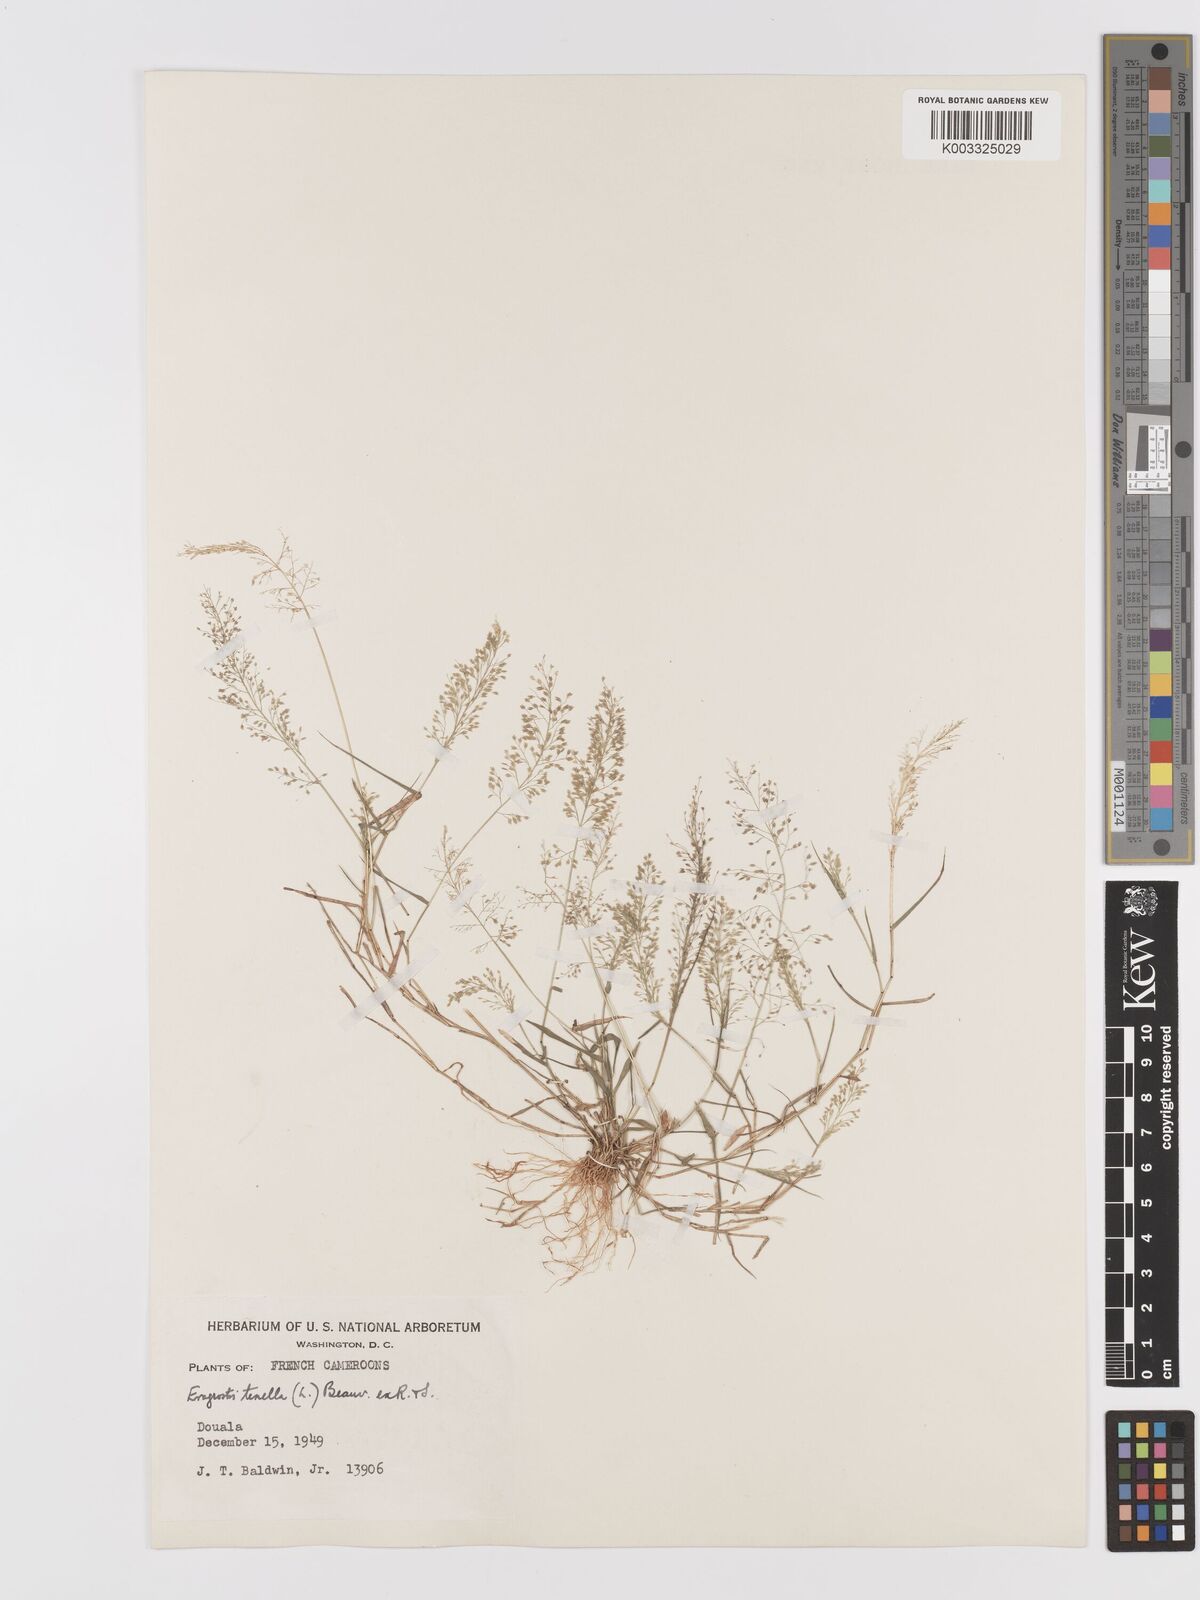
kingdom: Plantae
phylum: Tracheophyta
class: Liliopsida
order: Poales
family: Poaceae
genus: Eragrostis
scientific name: Eragrostis tenella
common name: Japanese lovegrass
